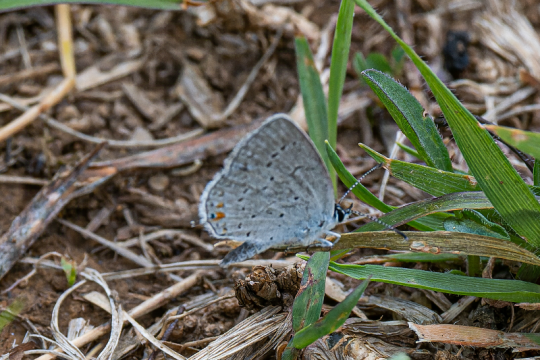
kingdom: Animalia
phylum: Arthropoda
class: Insecta
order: Lepidoptera
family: Lycaenidae
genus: Elkalyce
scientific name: Elkalyce comyntas
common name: Eastern Tailed-Blue
